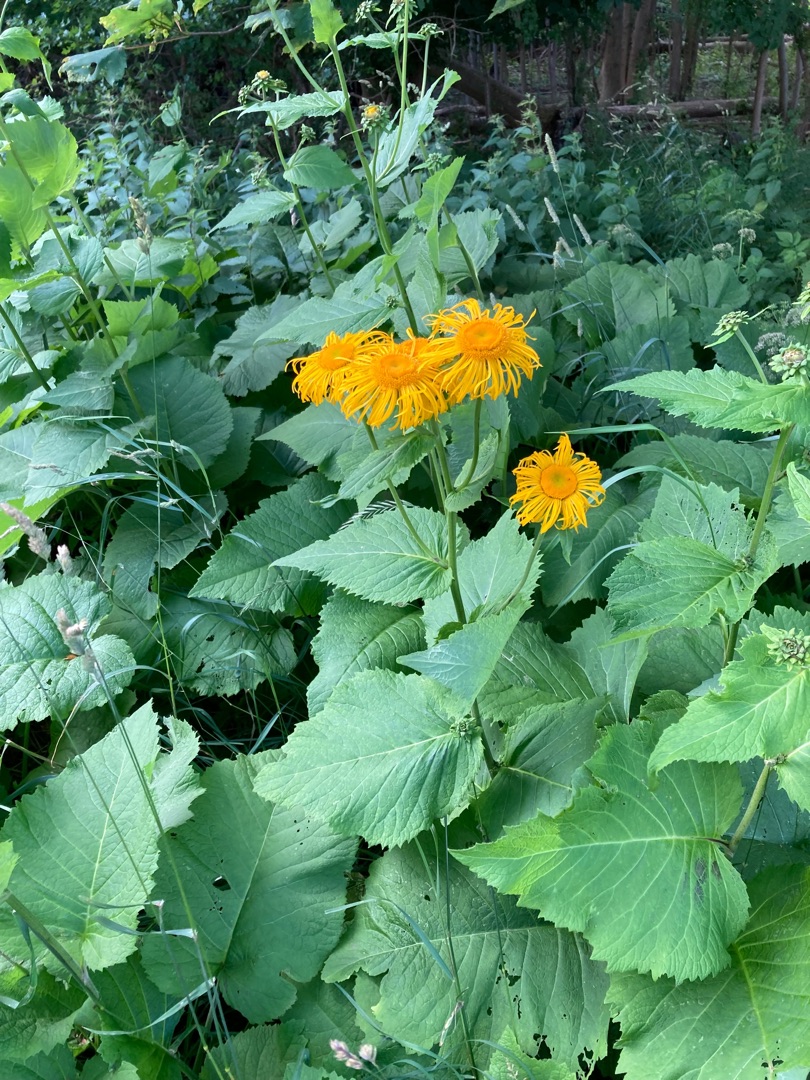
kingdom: Plantae
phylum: Tracheophyta
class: Magnoliopsida
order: Asterales
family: Asteraceae
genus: Telekia
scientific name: Telekia speciosa
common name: Tusindstråle
